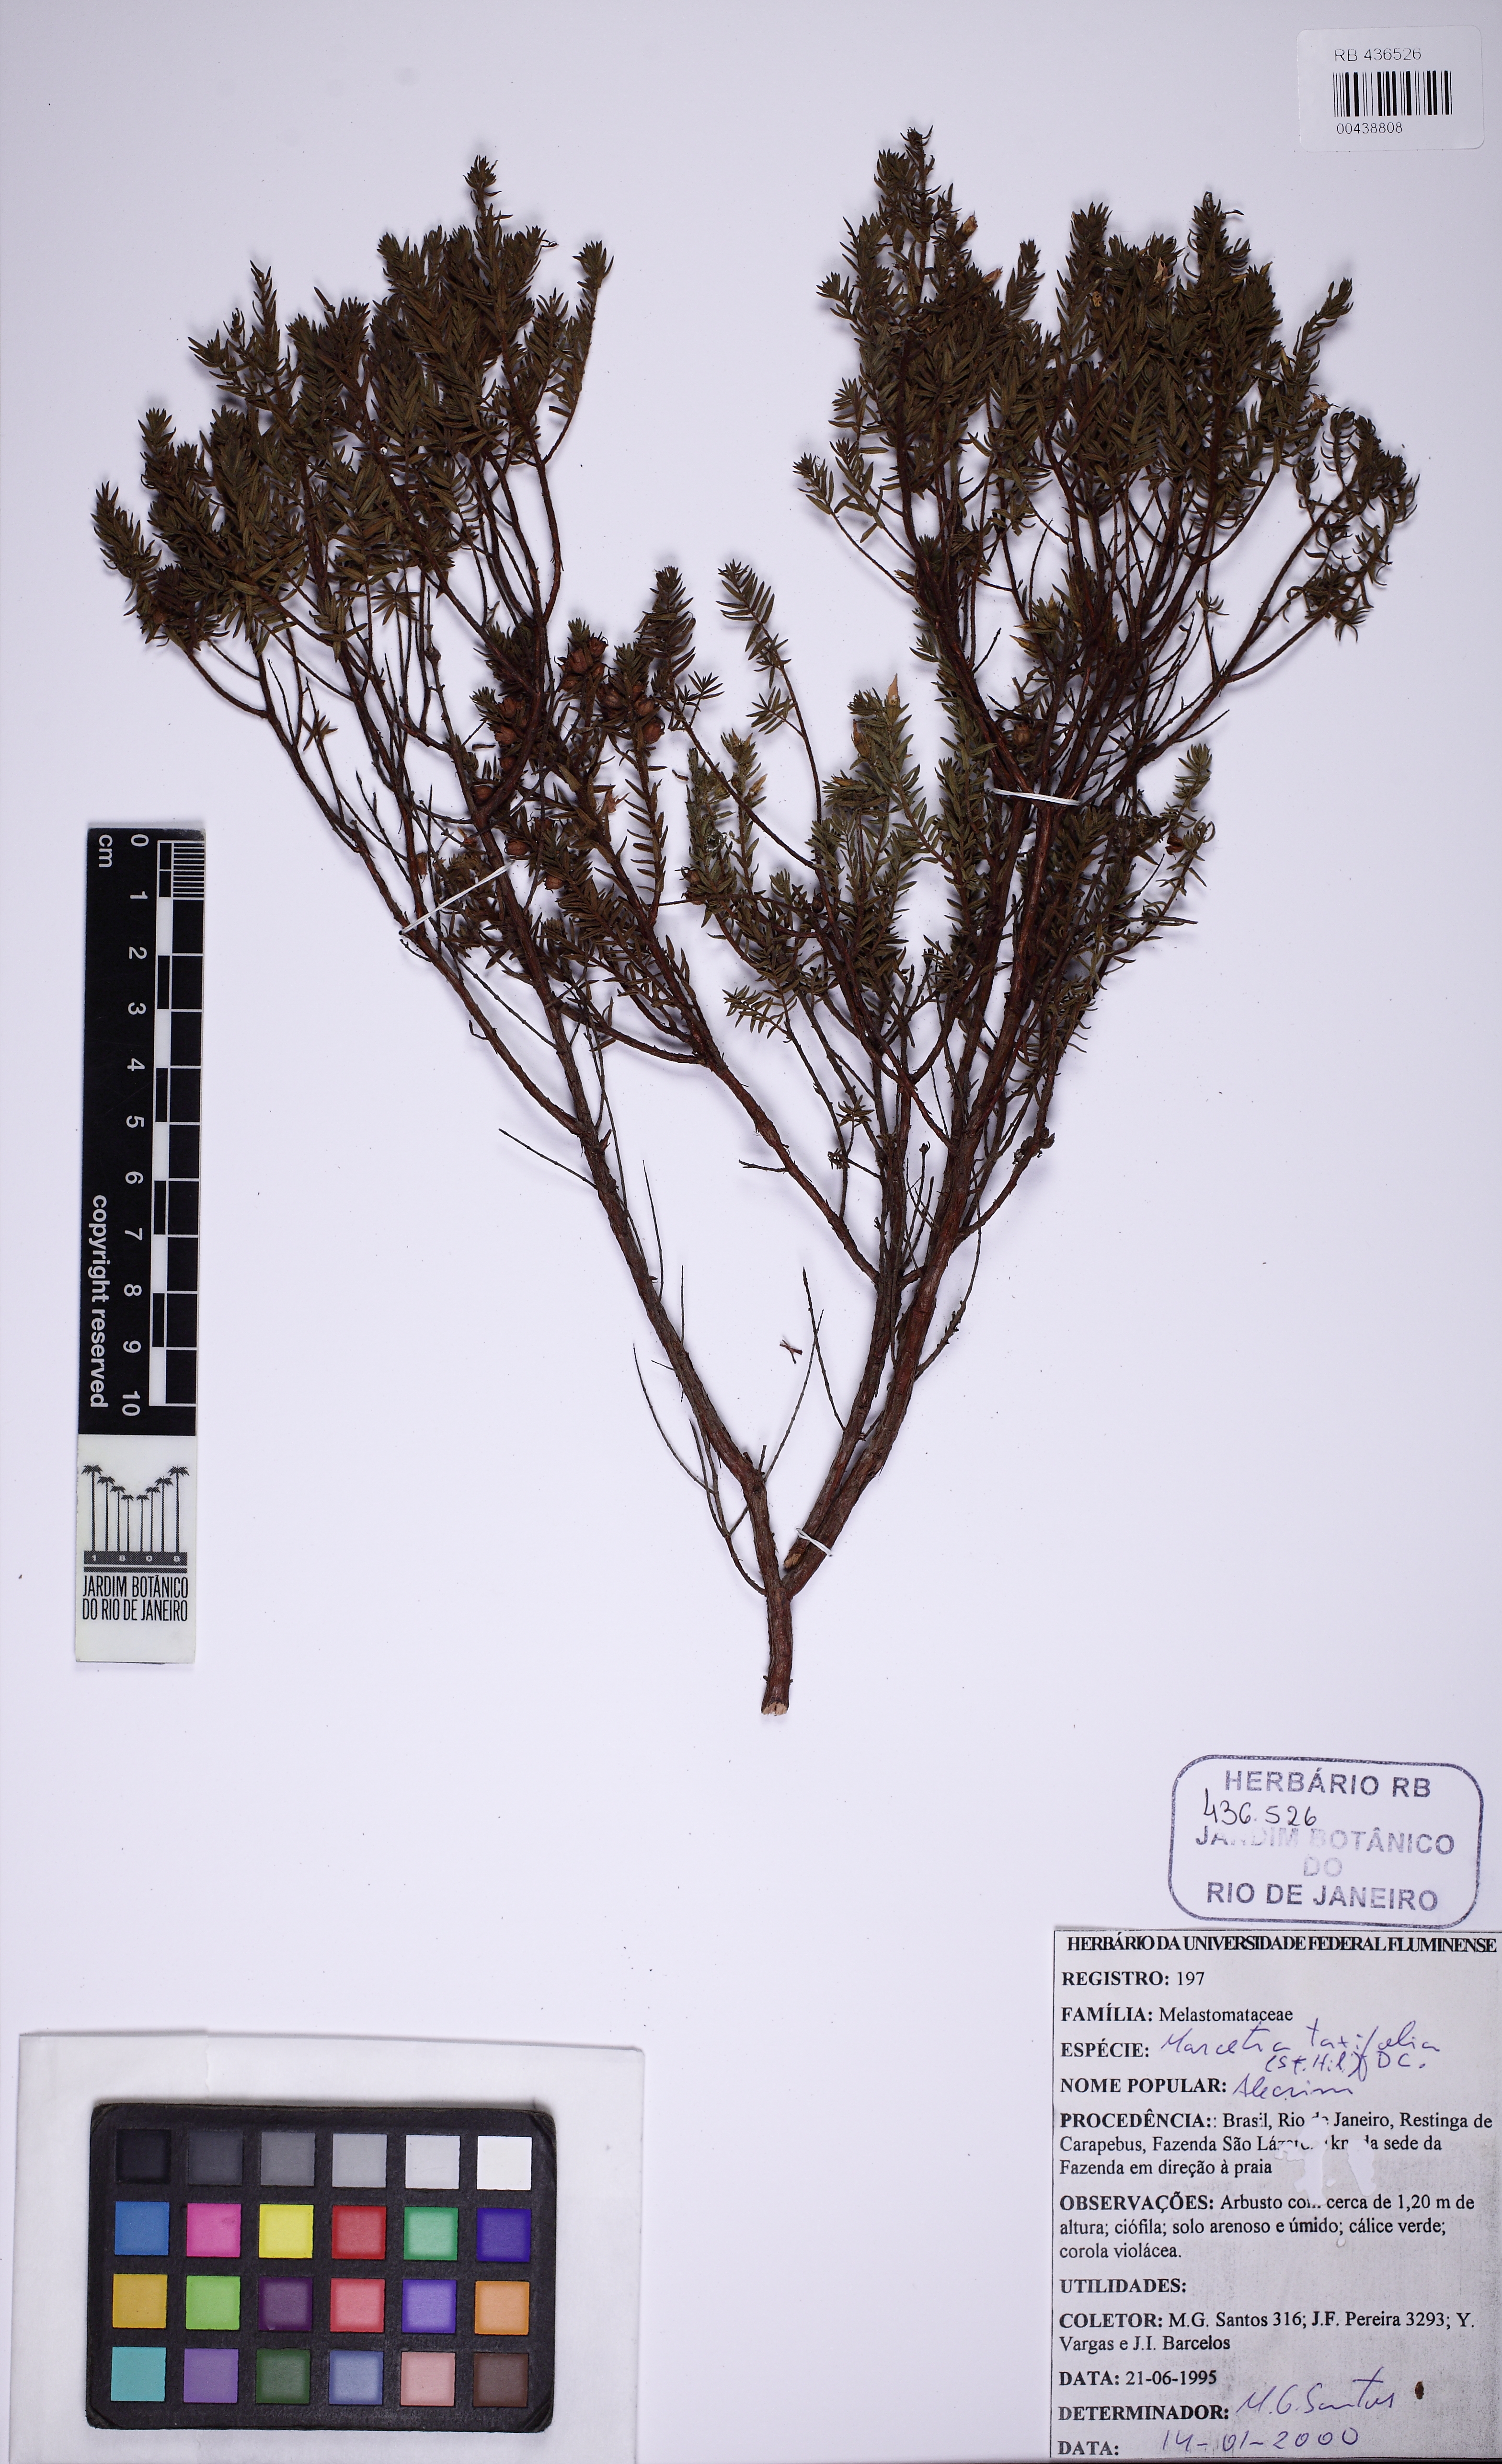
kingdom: Plantae
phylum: Tracheophyta
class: Magnoliopsida
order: Myrtales
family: Melastomataceae
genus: Marcetia
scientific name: Marcetia taxifolia
